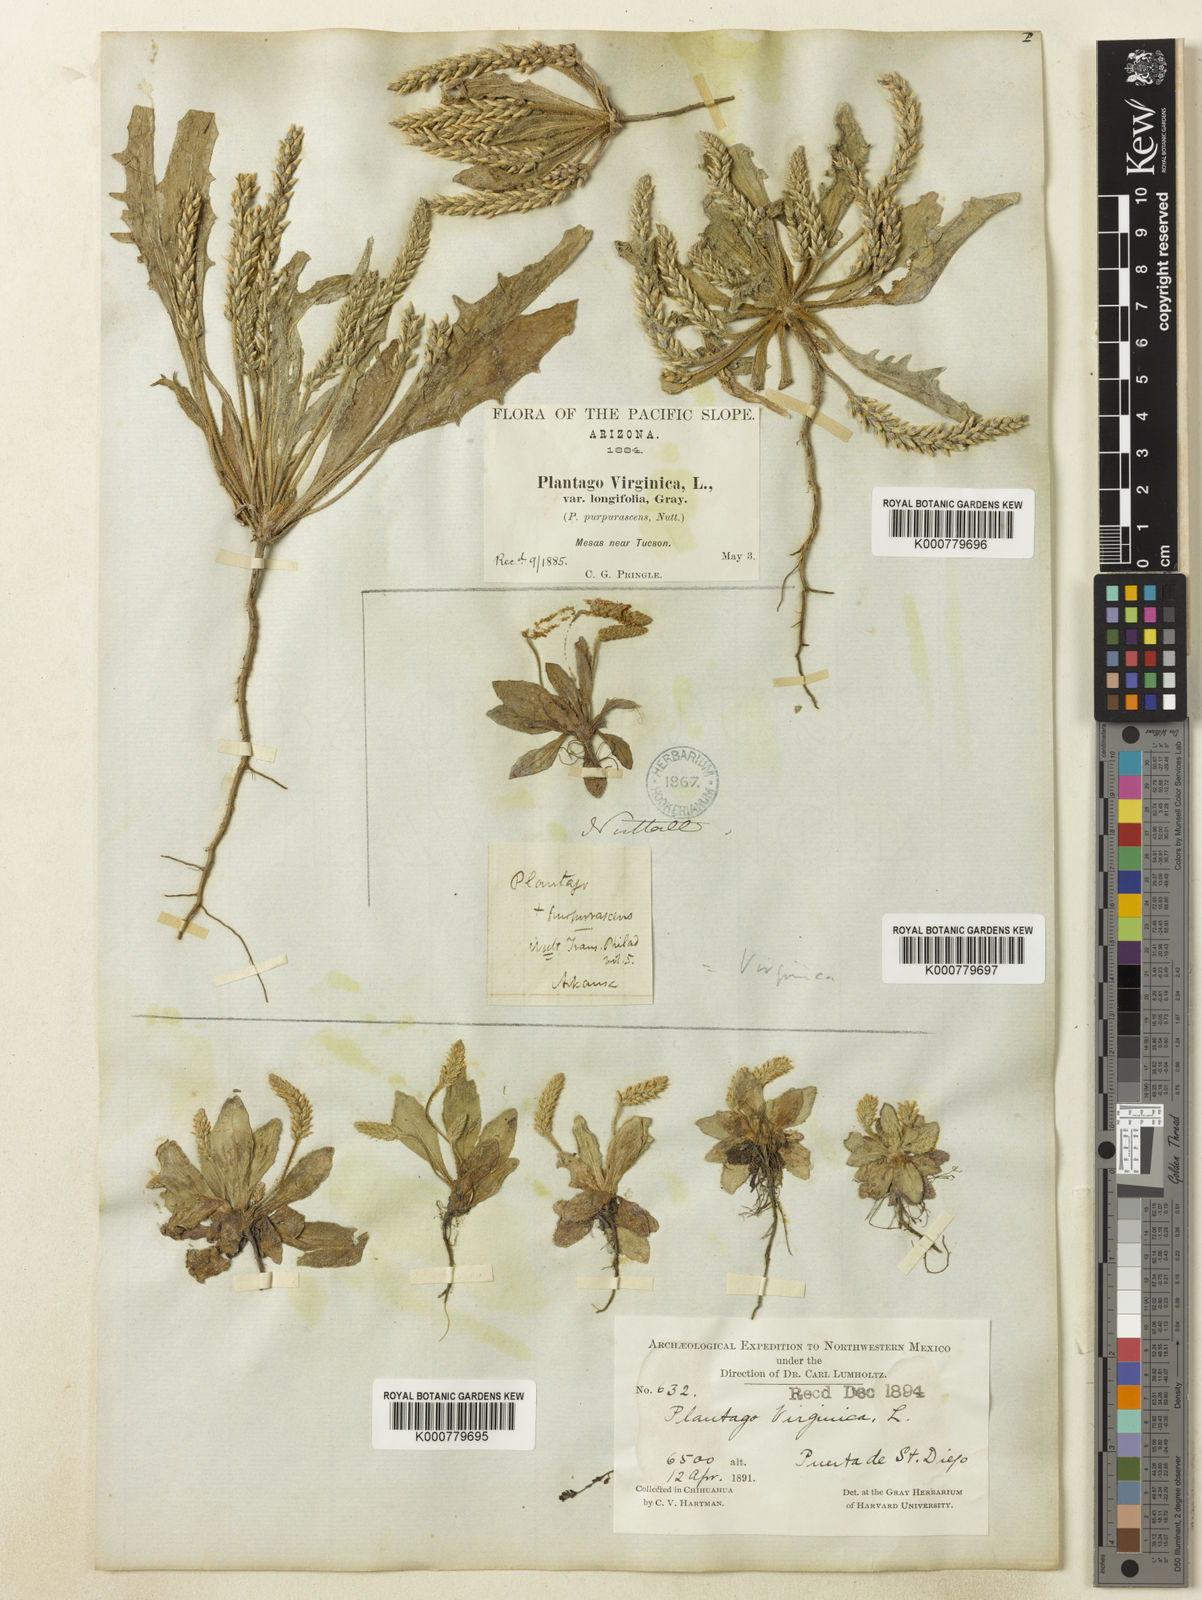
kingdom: Plantae
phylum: Tracheophyta
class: Magnoliopsida
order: Lamiales
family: Plantaginaceae
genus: Plantago
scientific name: Plantago virginica
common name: Hoary plantain
